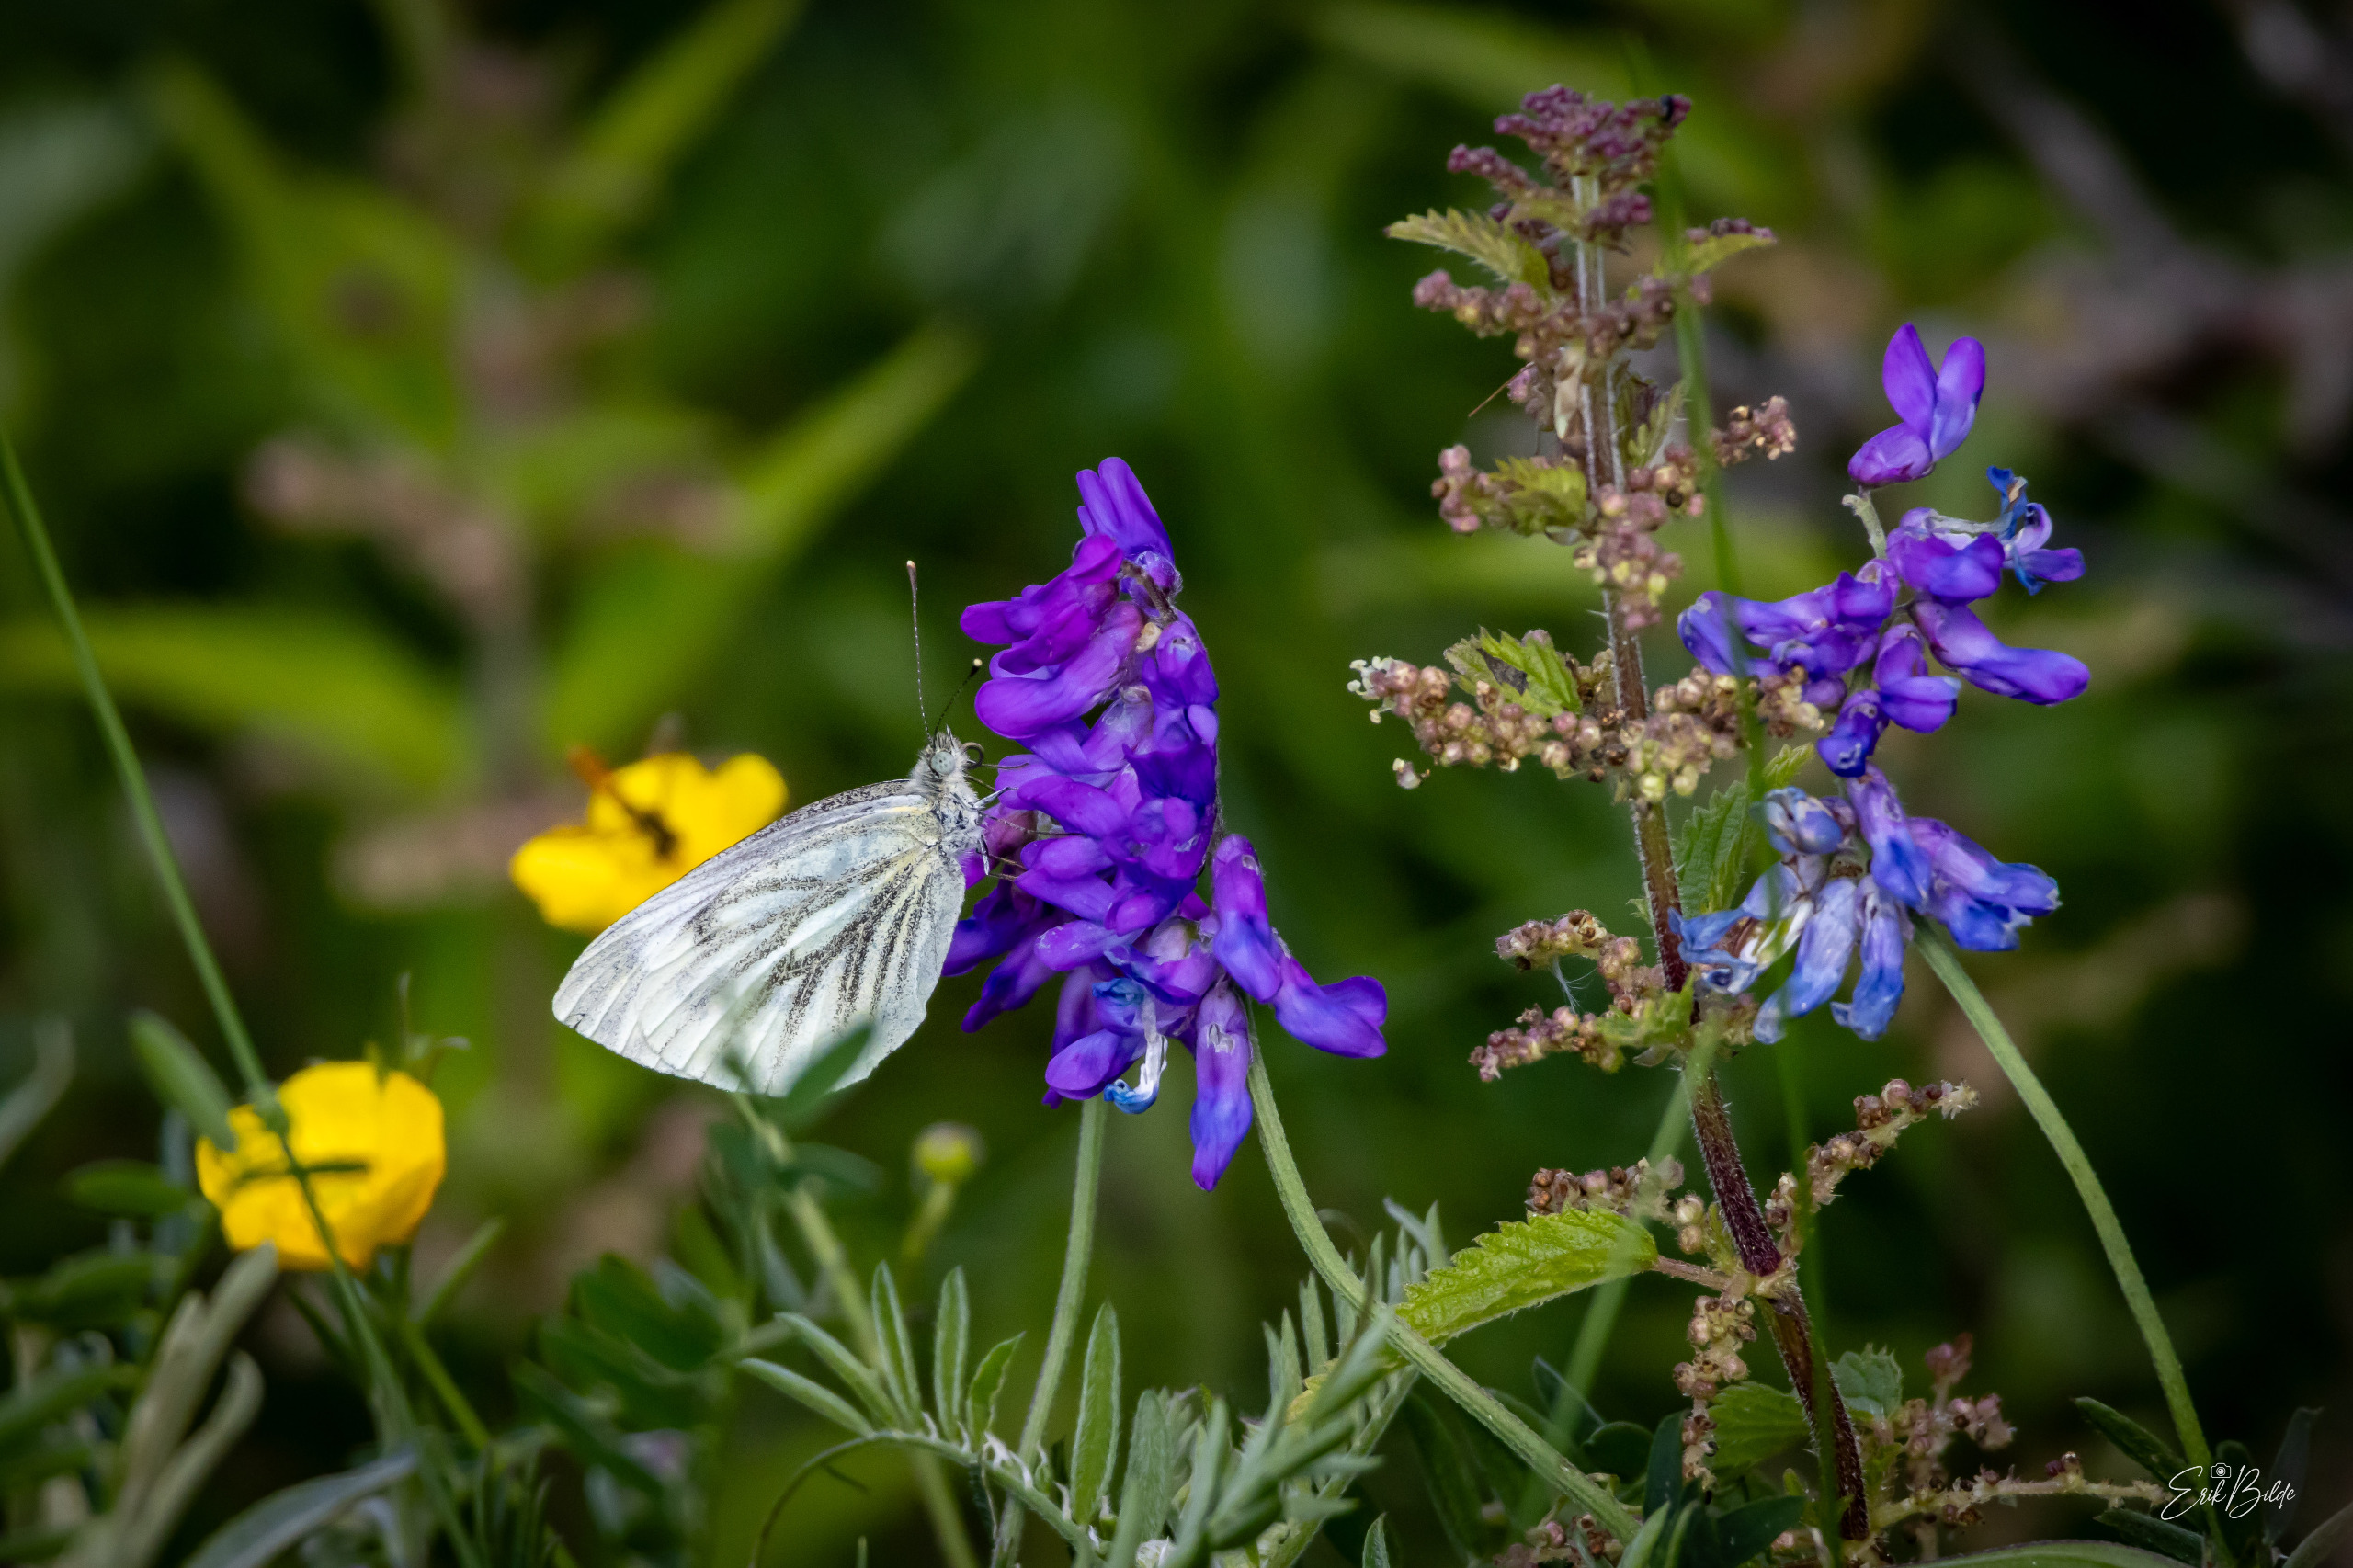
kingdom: Animalia
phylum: Arthropoda
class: Insecta
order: Lepidoptera
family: Pieridae
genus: Pieris
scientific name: Pieris napi
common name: Grønåret kålsommerfugl
